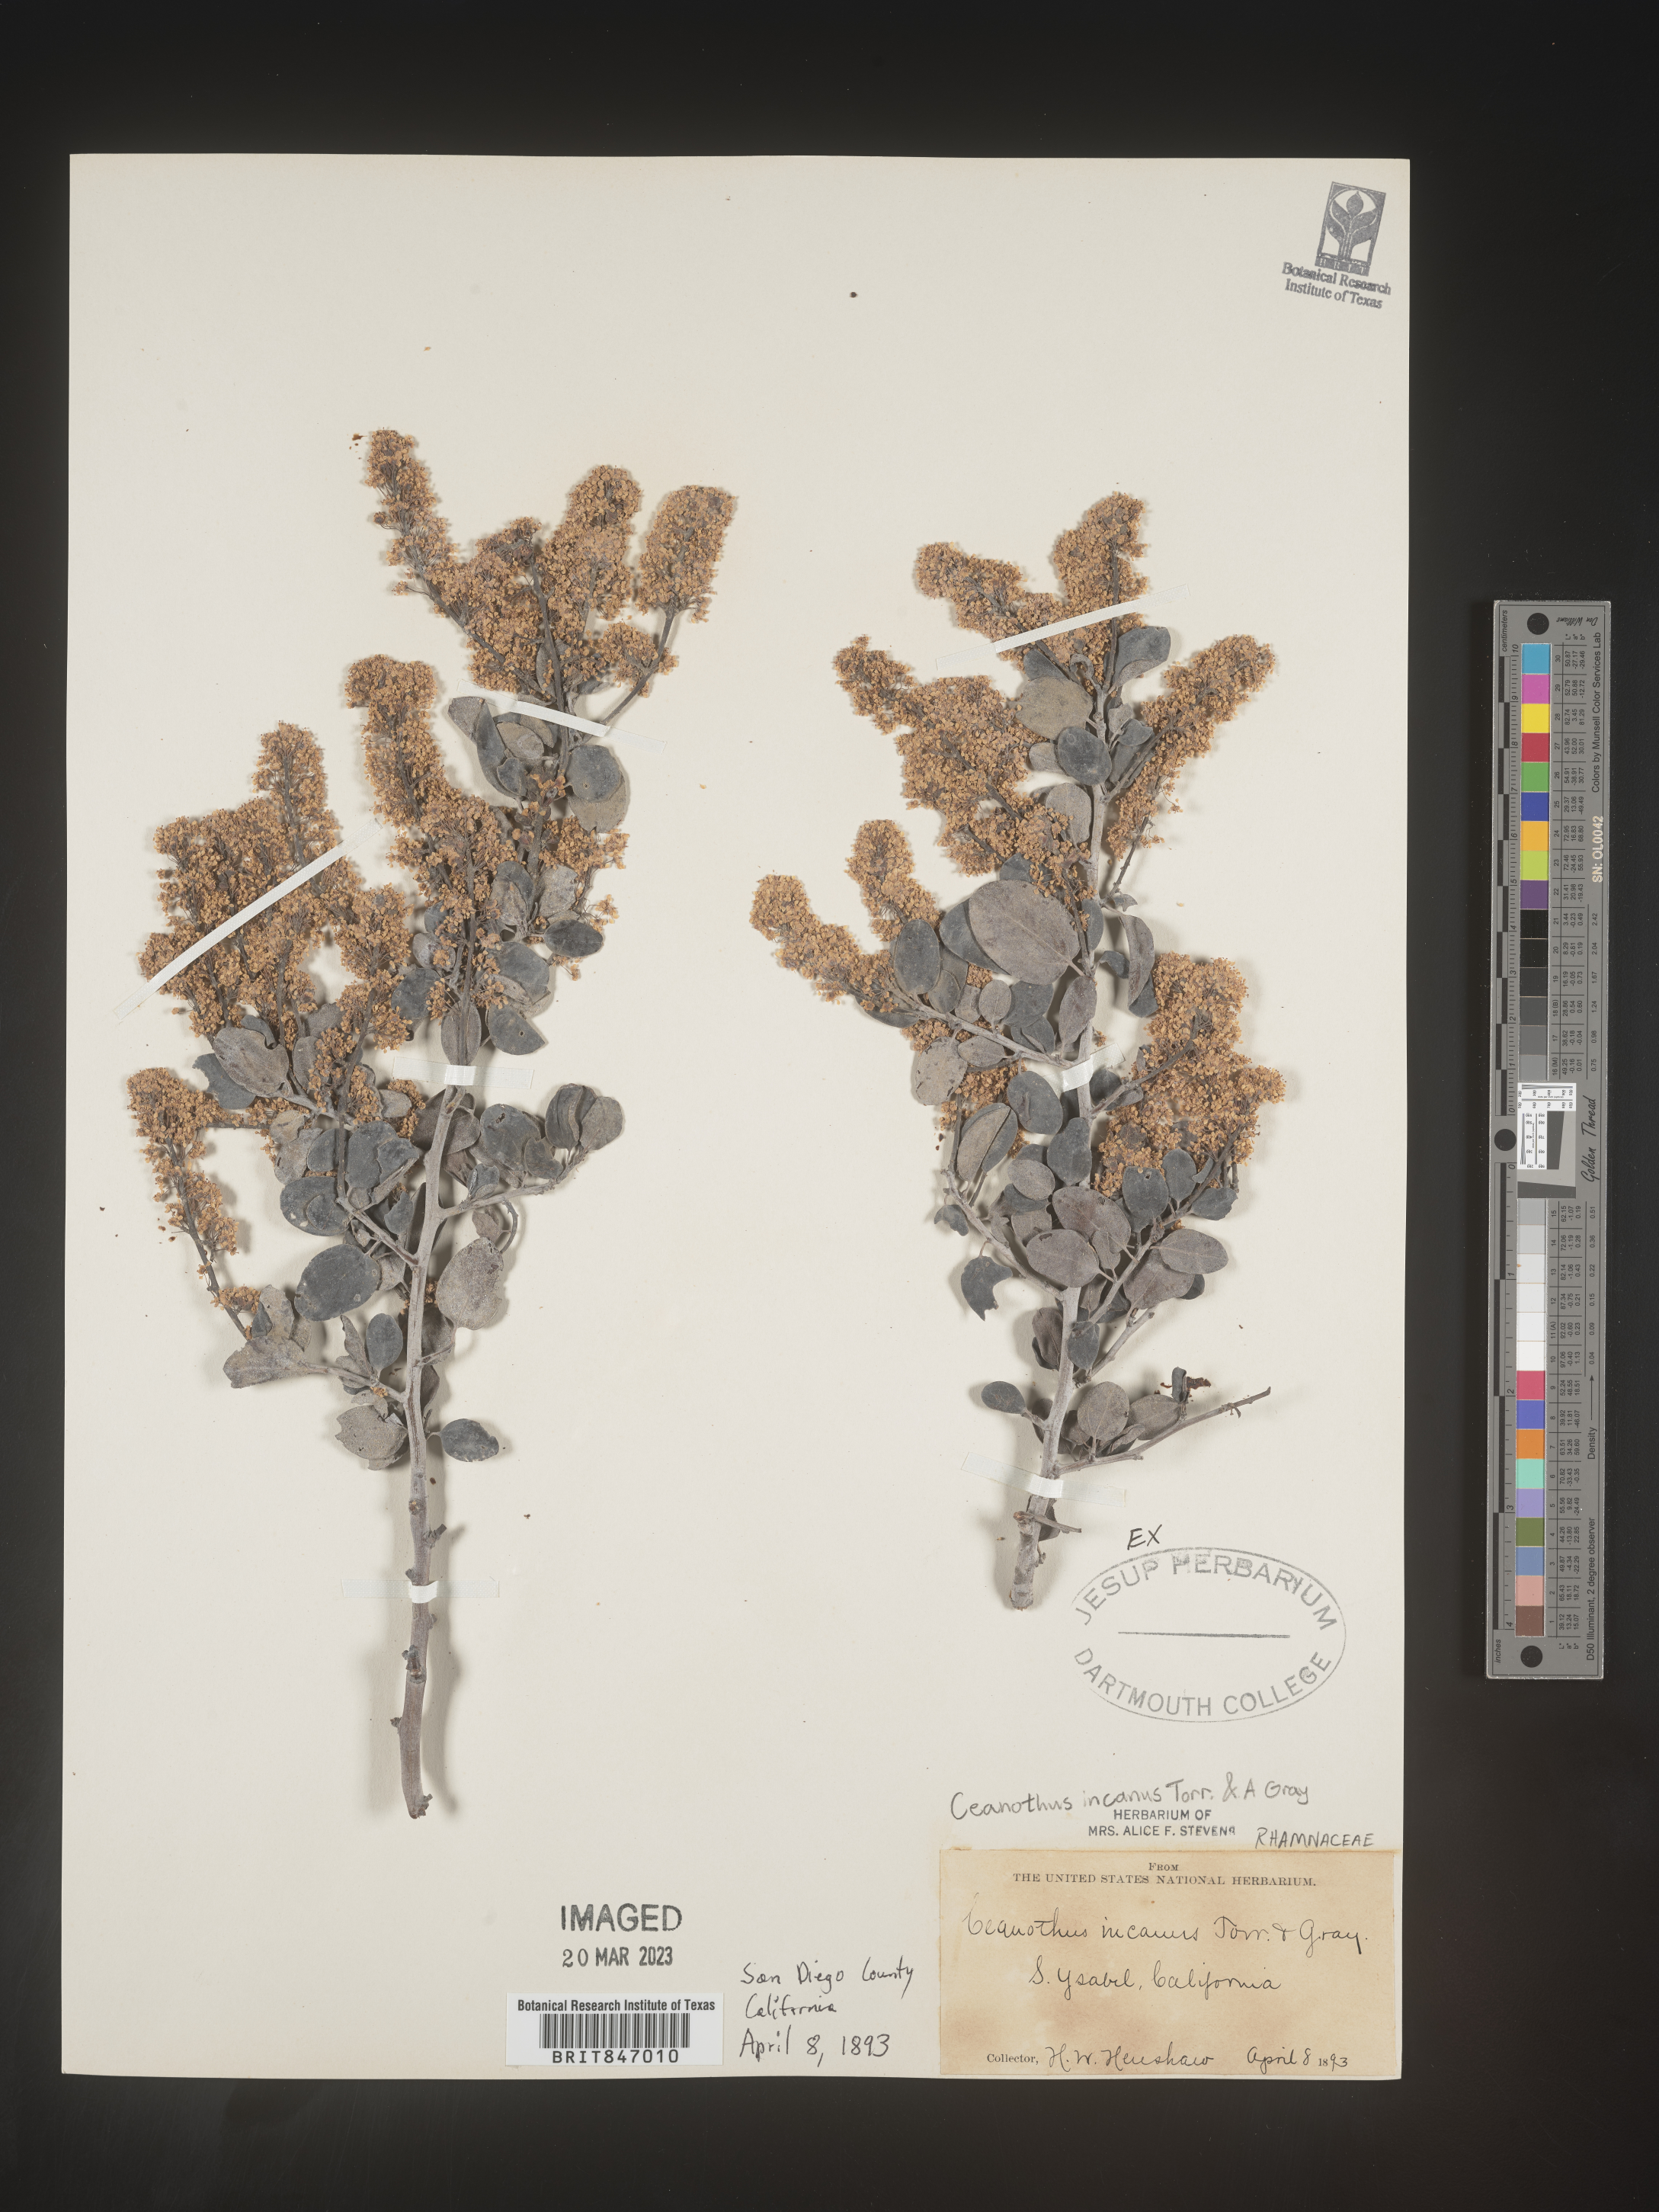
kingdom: Plantae
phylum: Tracheophyta
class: Magnoliopsida
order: Rosales
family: Rhamnaceae
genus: Ceanothus
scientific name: Ceanothus
